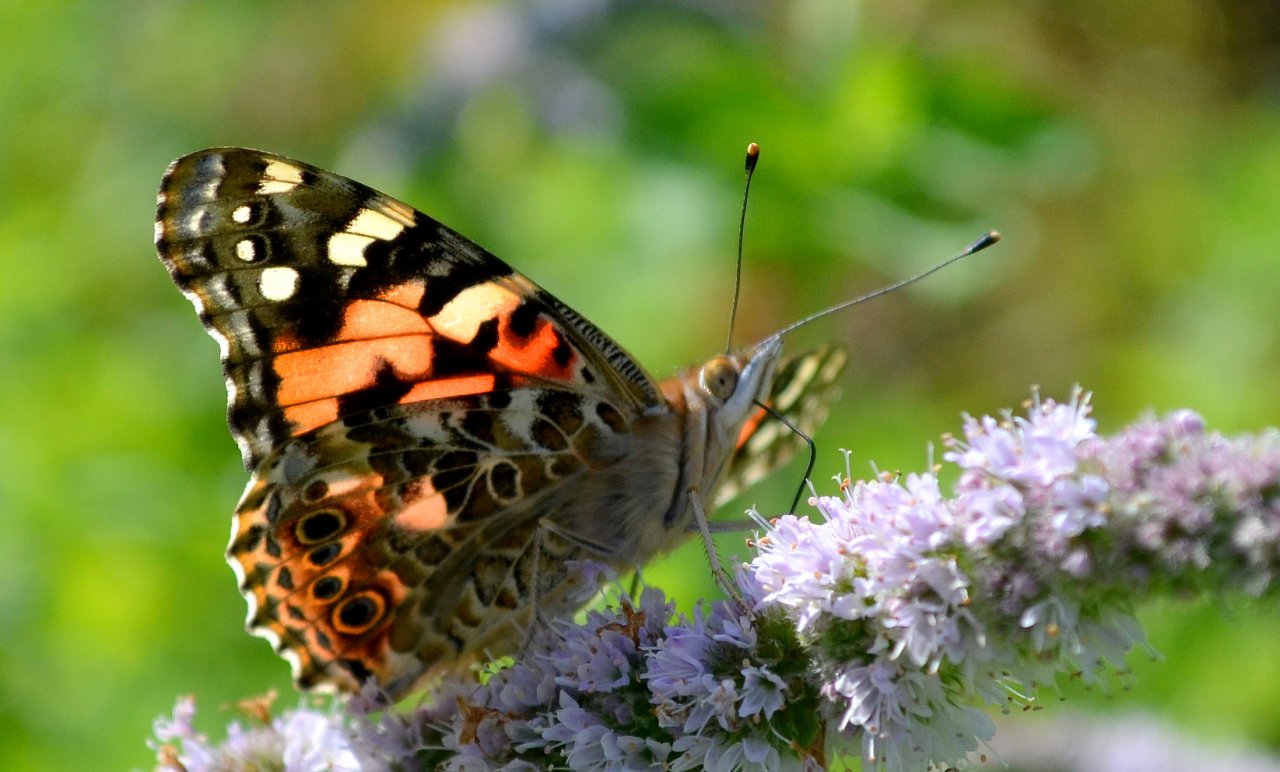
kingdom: Animalia
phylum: Arthropoda
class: Insecta
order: Lepidoptera
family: Nymphalidae
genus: Vanessa
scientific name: Vanessa cardui
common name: Painted Lady
